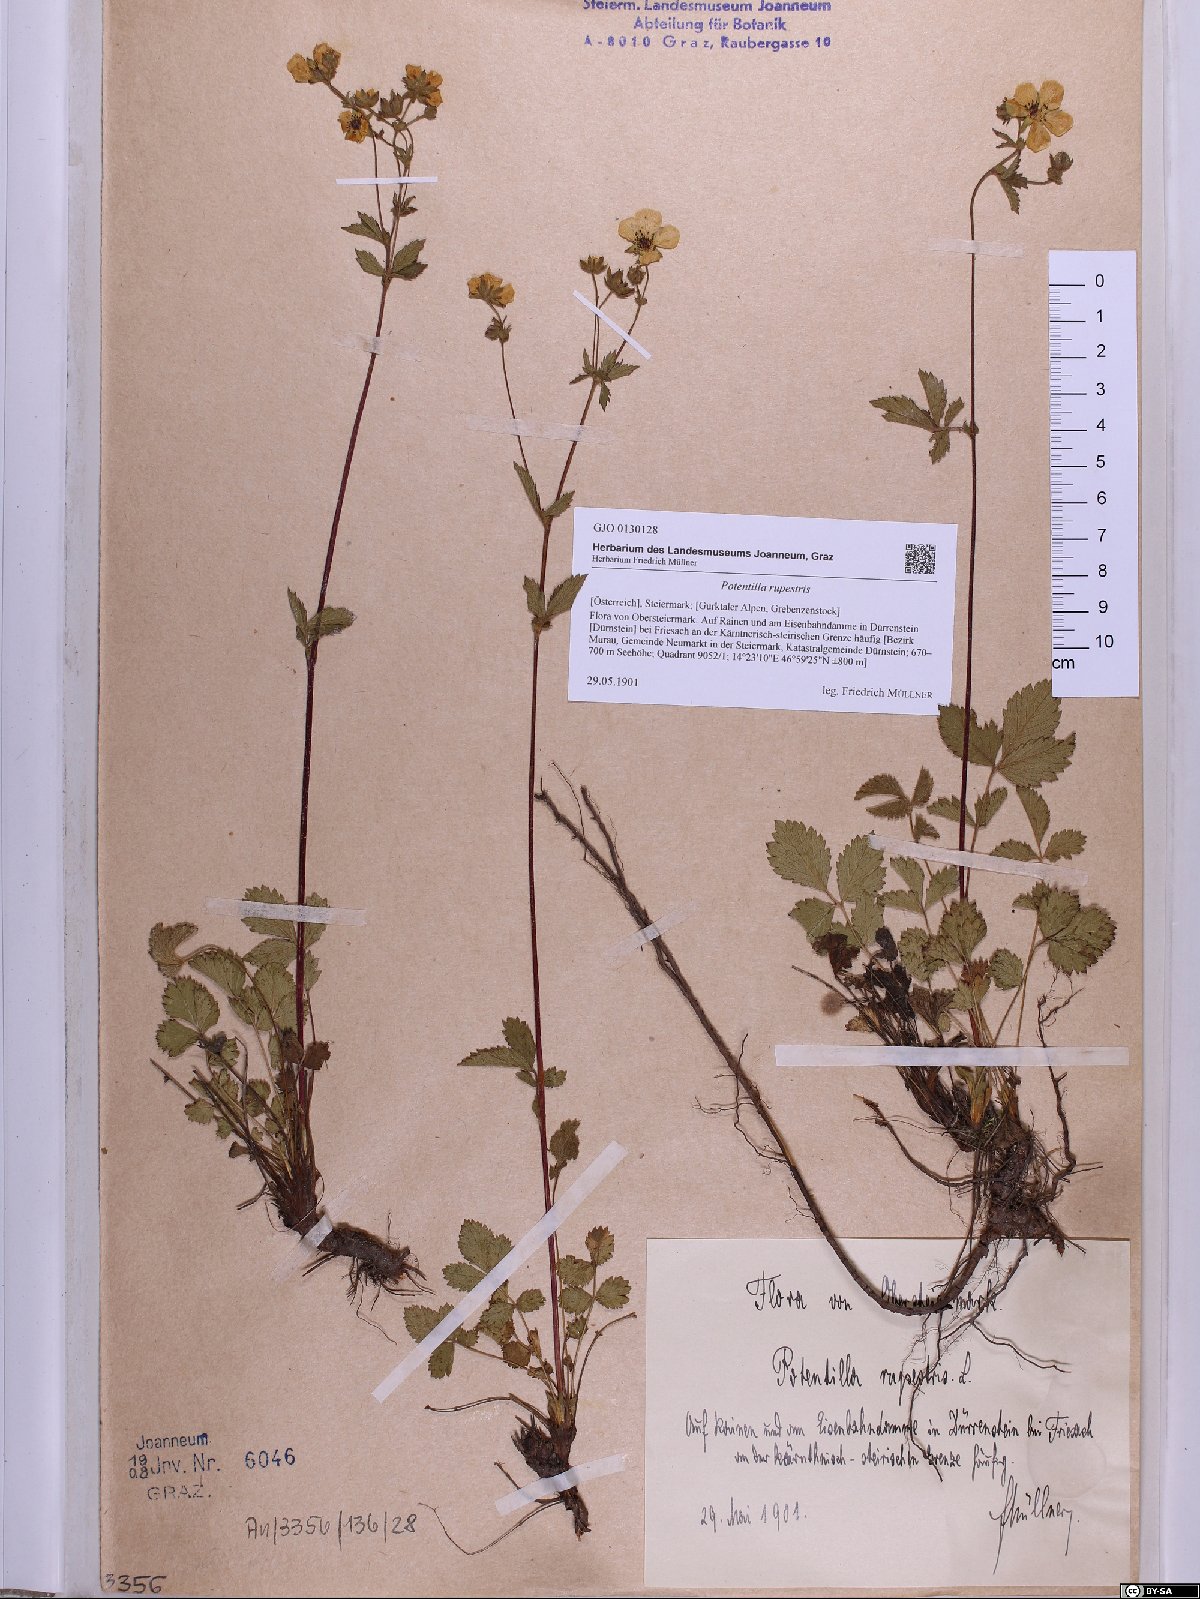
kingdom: Plantae
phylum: Tracheophyta
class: Magnoliopsida
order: Rosales
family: Rosaceae
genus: Drymocallis
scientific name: Drymocallis rupestris
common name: Rock cinquefoil
